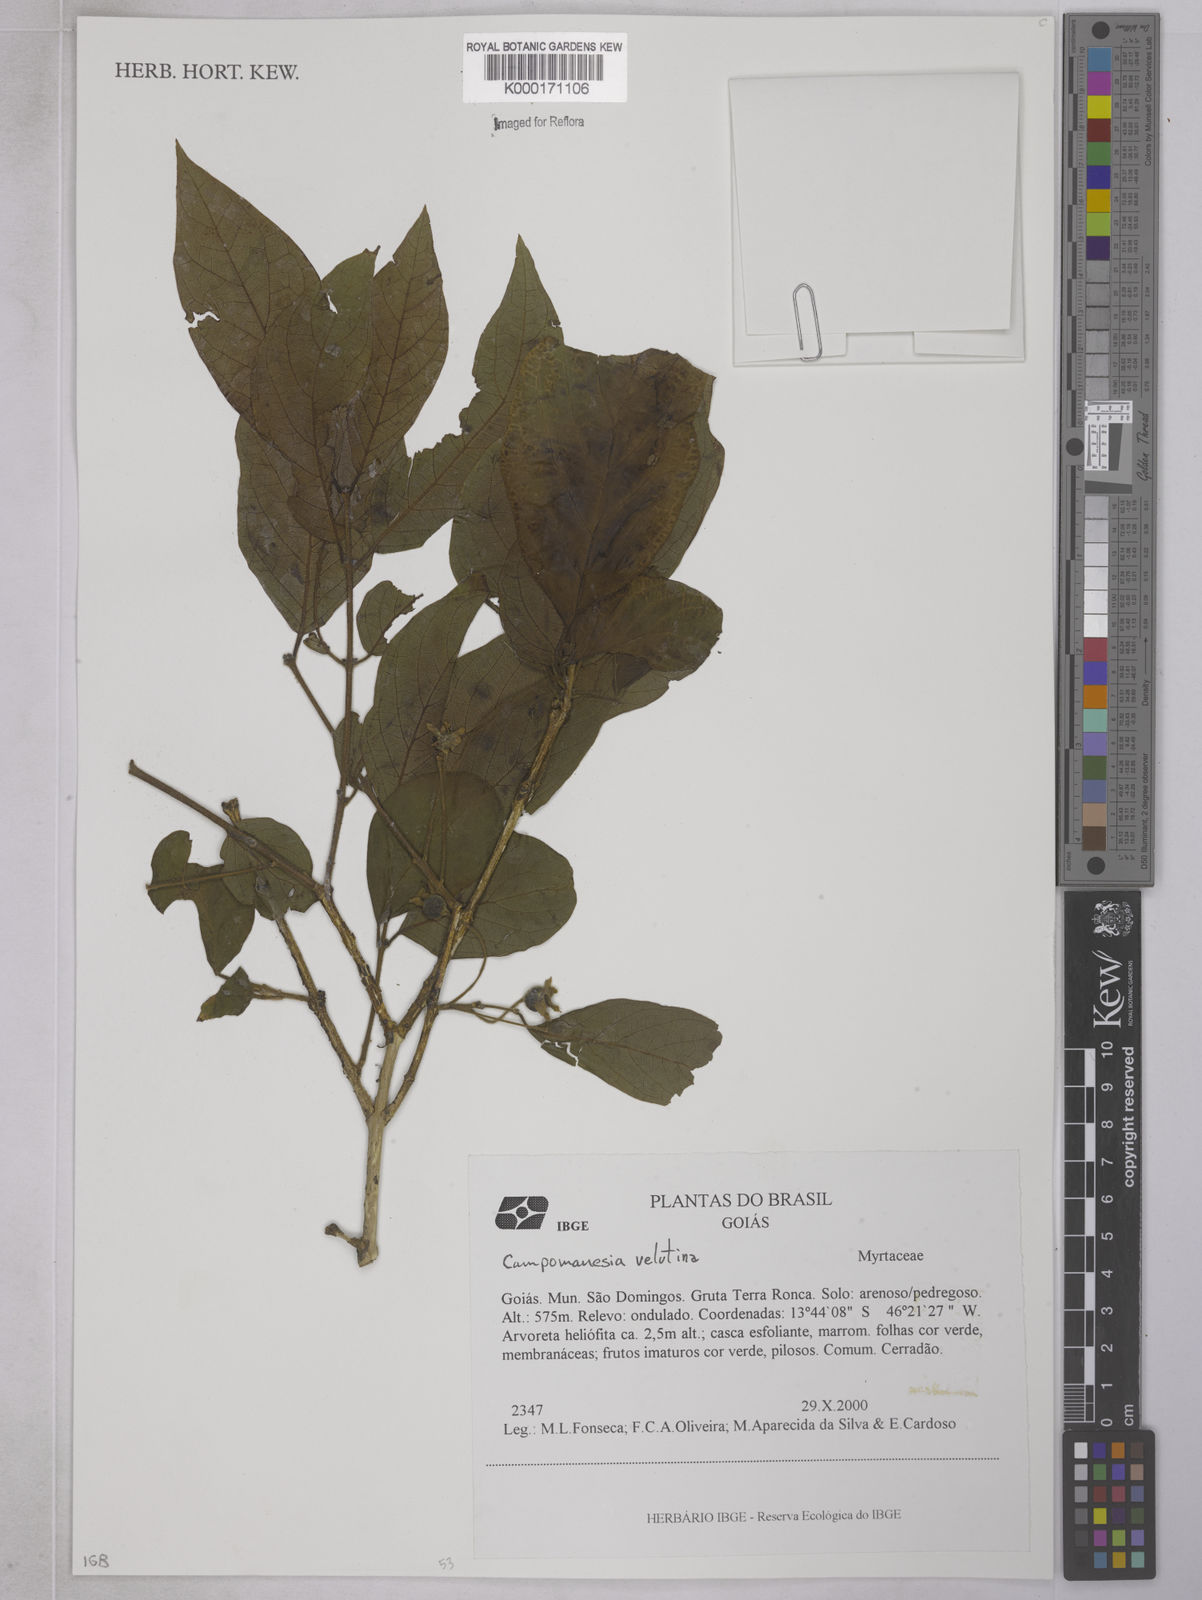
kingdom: Plantae
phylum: Tracheophyta
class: Magnoliopsida
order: Myrtales
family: Myrtaceae
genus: Campomanesia
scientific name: Campomanesia
